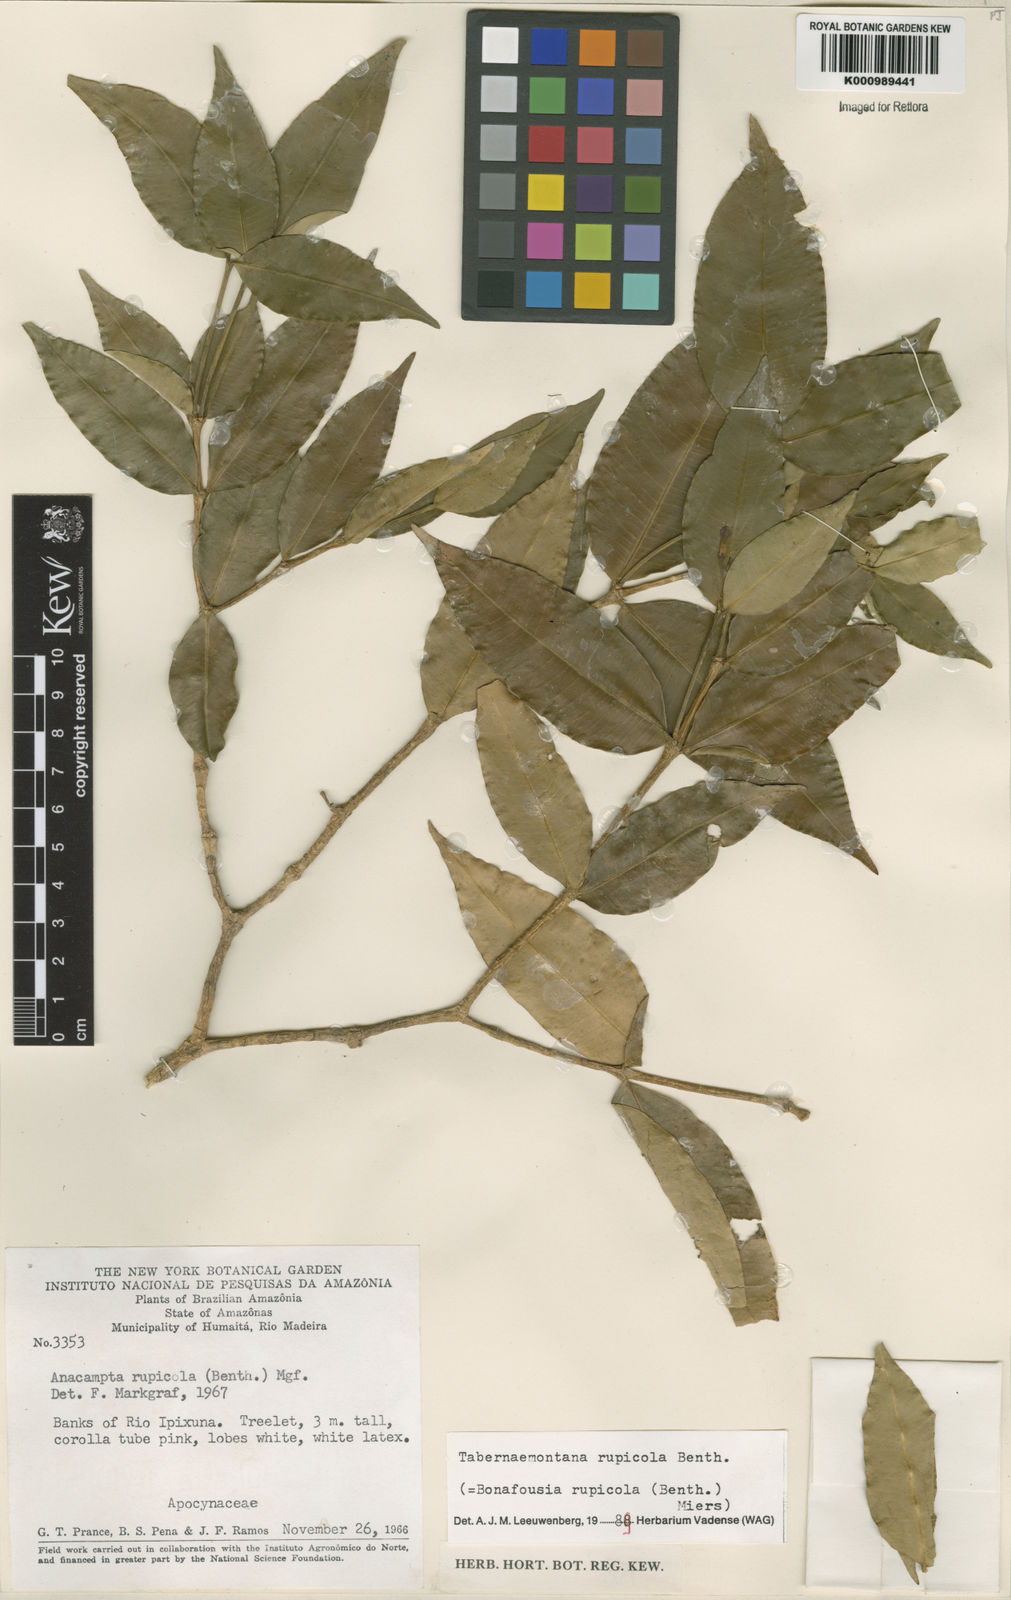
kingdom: Plantae
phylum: Tracheophyta
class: Magnoliopsida
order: Gentianales
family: Apocynaceae
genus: Tabernaemontana
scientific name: Tabernaemontana rupicola
